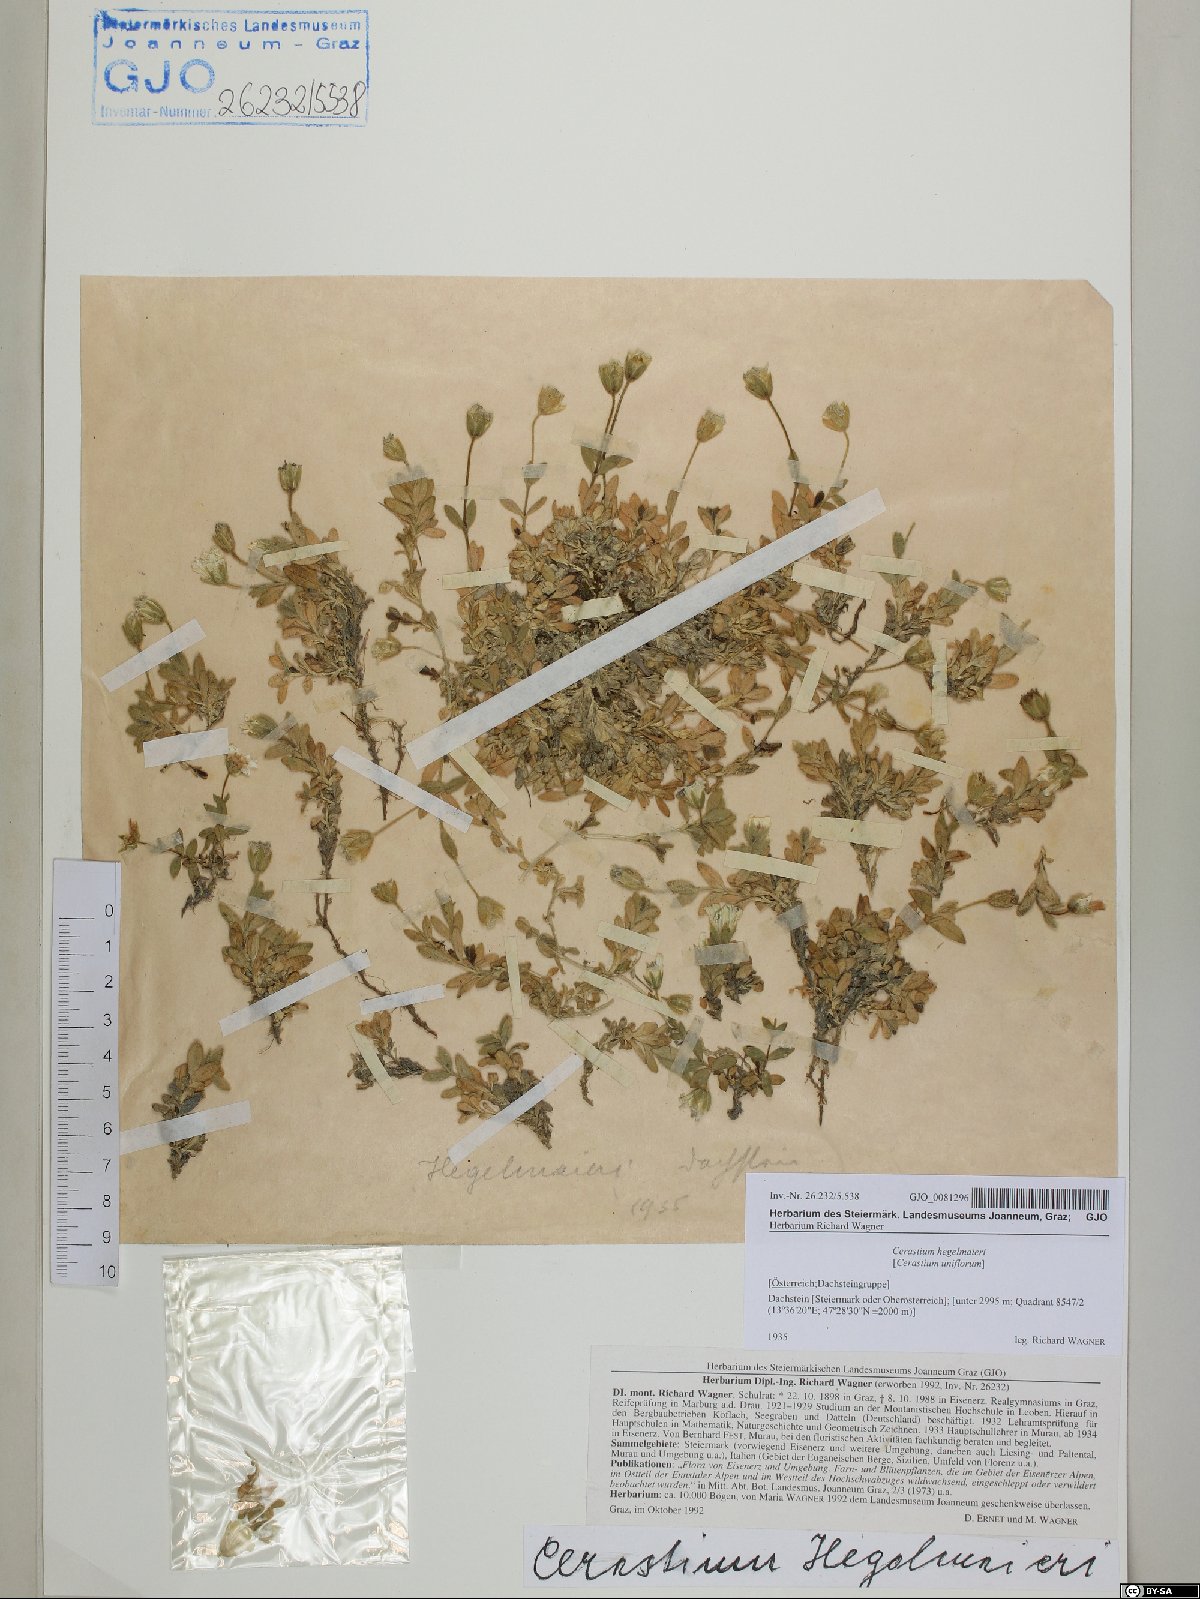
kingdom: Plantae
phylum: Tracheophyta
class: Magnoliopsida
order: Caryophyllales
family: Caryophyllaceae
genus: Cerastium
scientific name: Cerastium uniflorum
